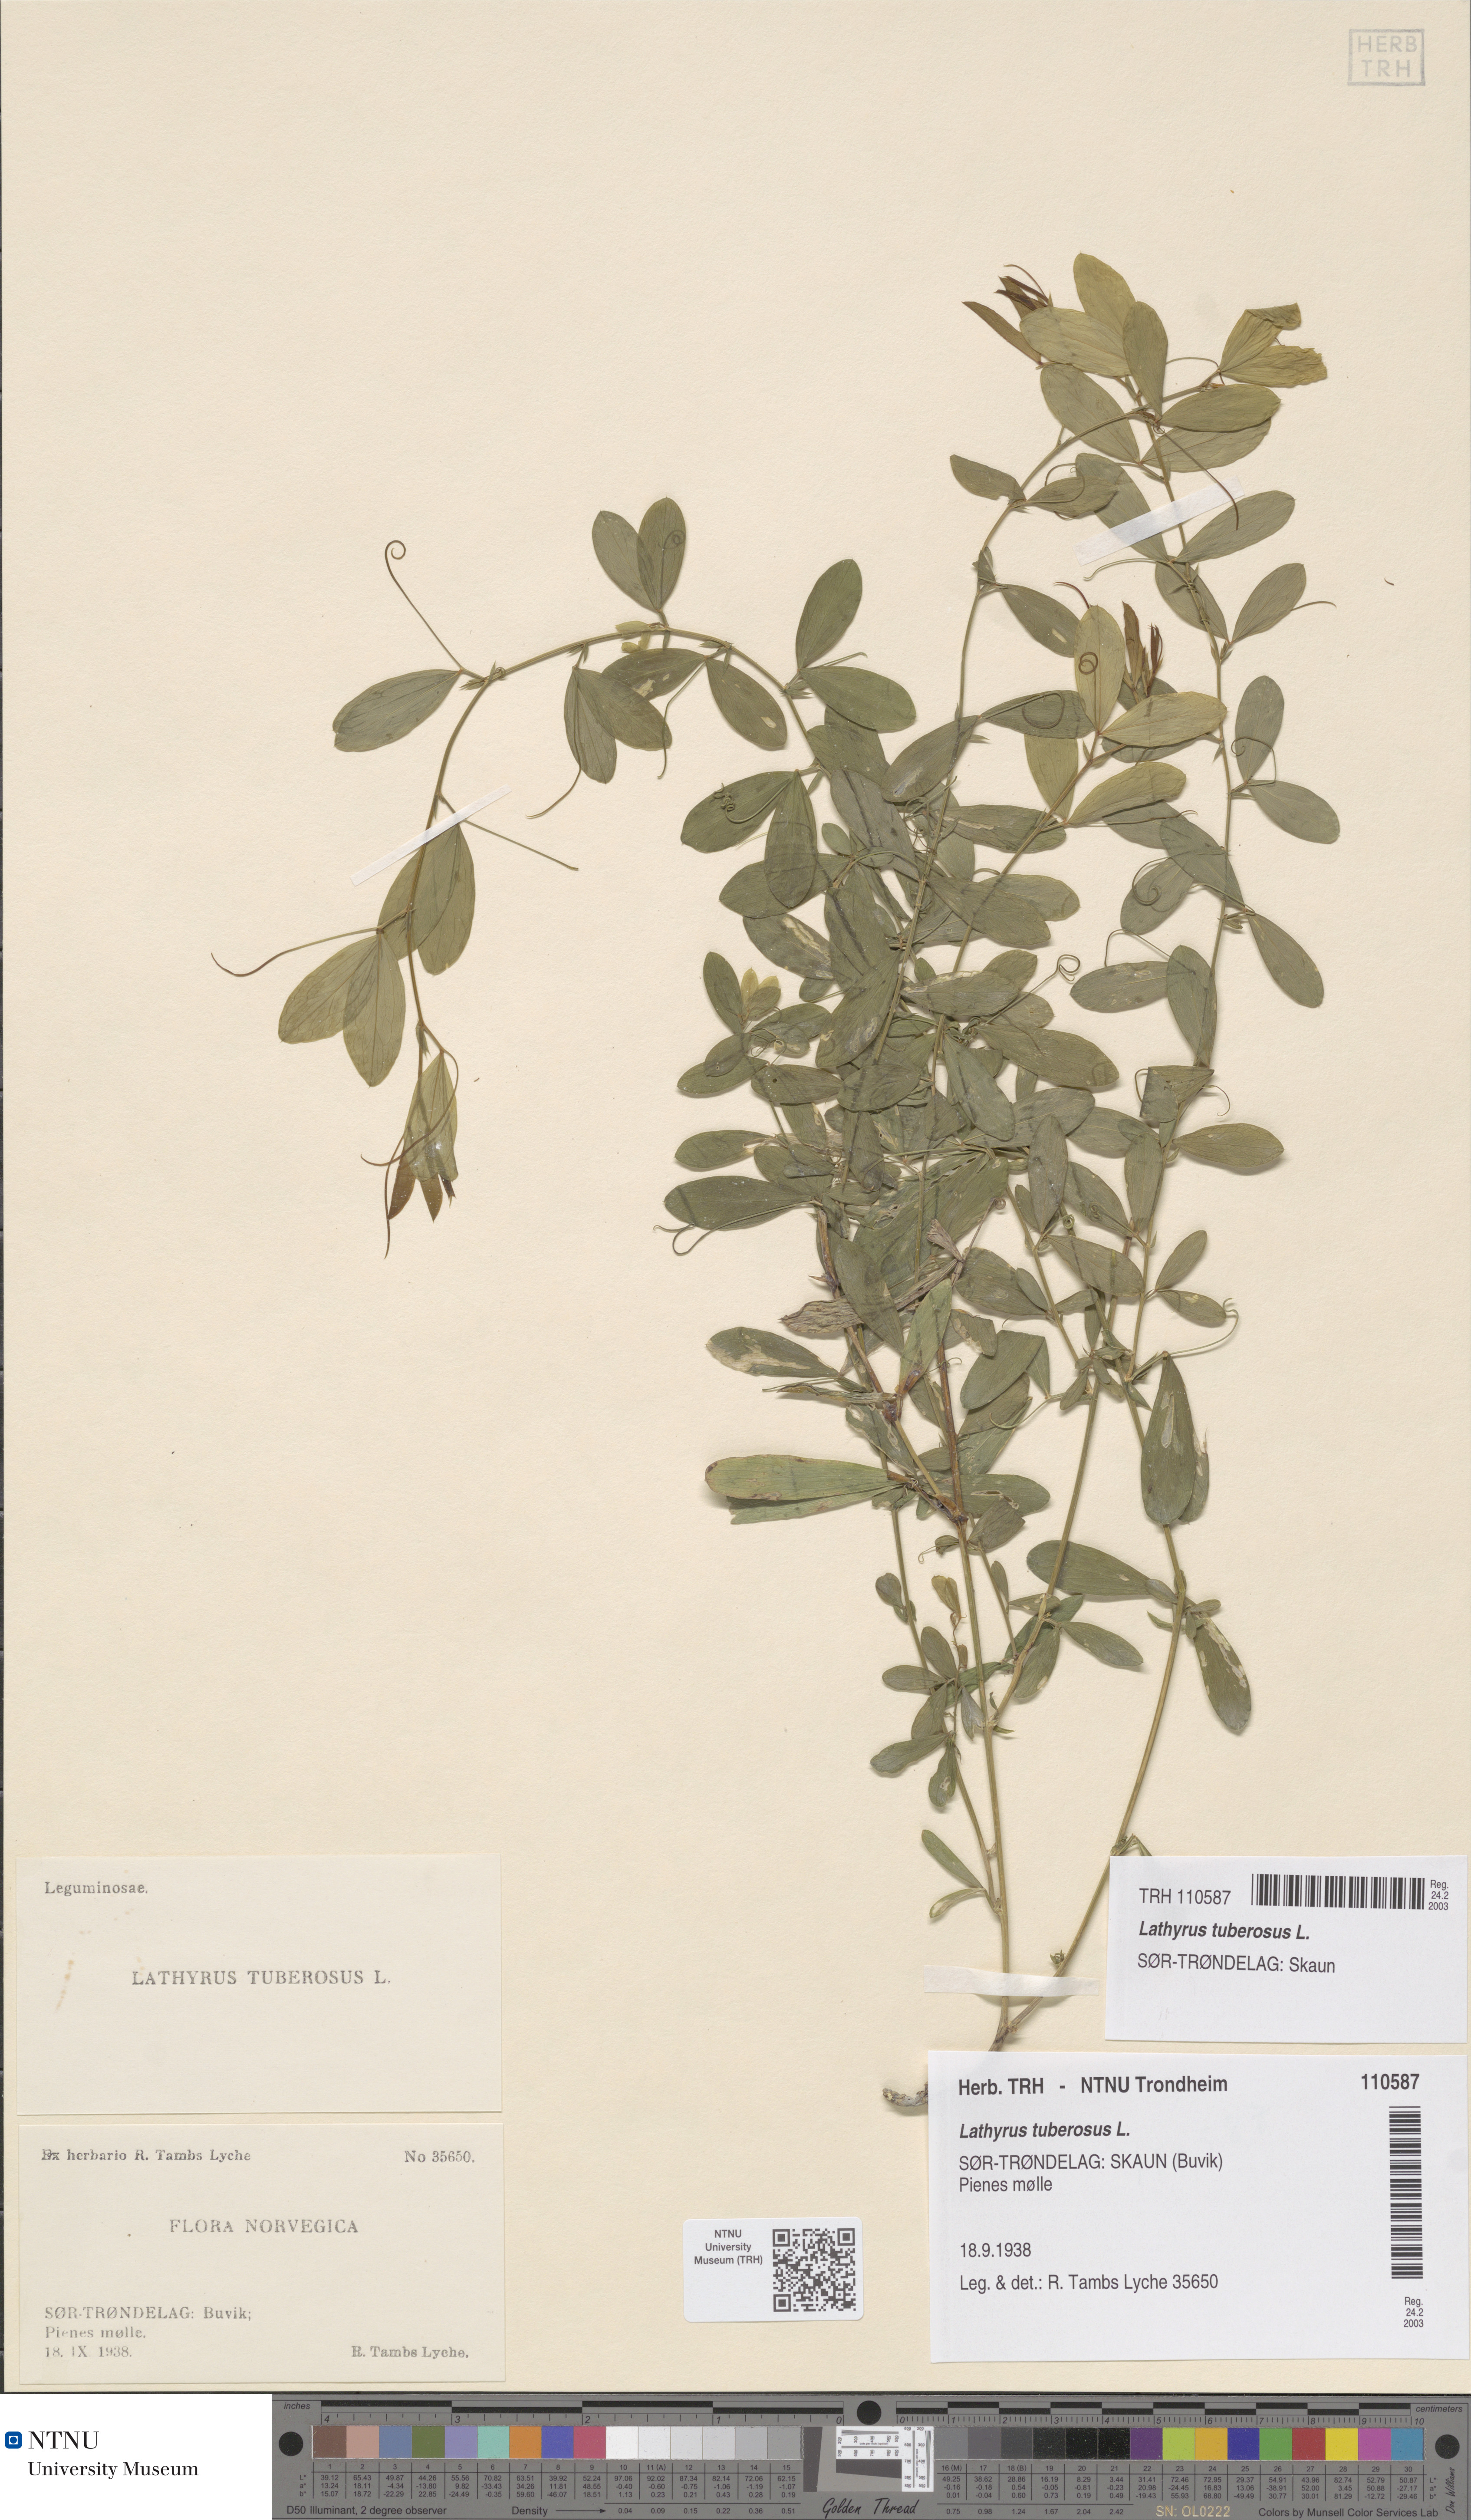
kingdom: Plantae
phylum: Tracheophyta
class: Magnoliopsida
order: Fabales
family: Fabaceae
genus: Lathyrus
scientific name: Lathyrus tuberosus
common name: Tuberous pea
